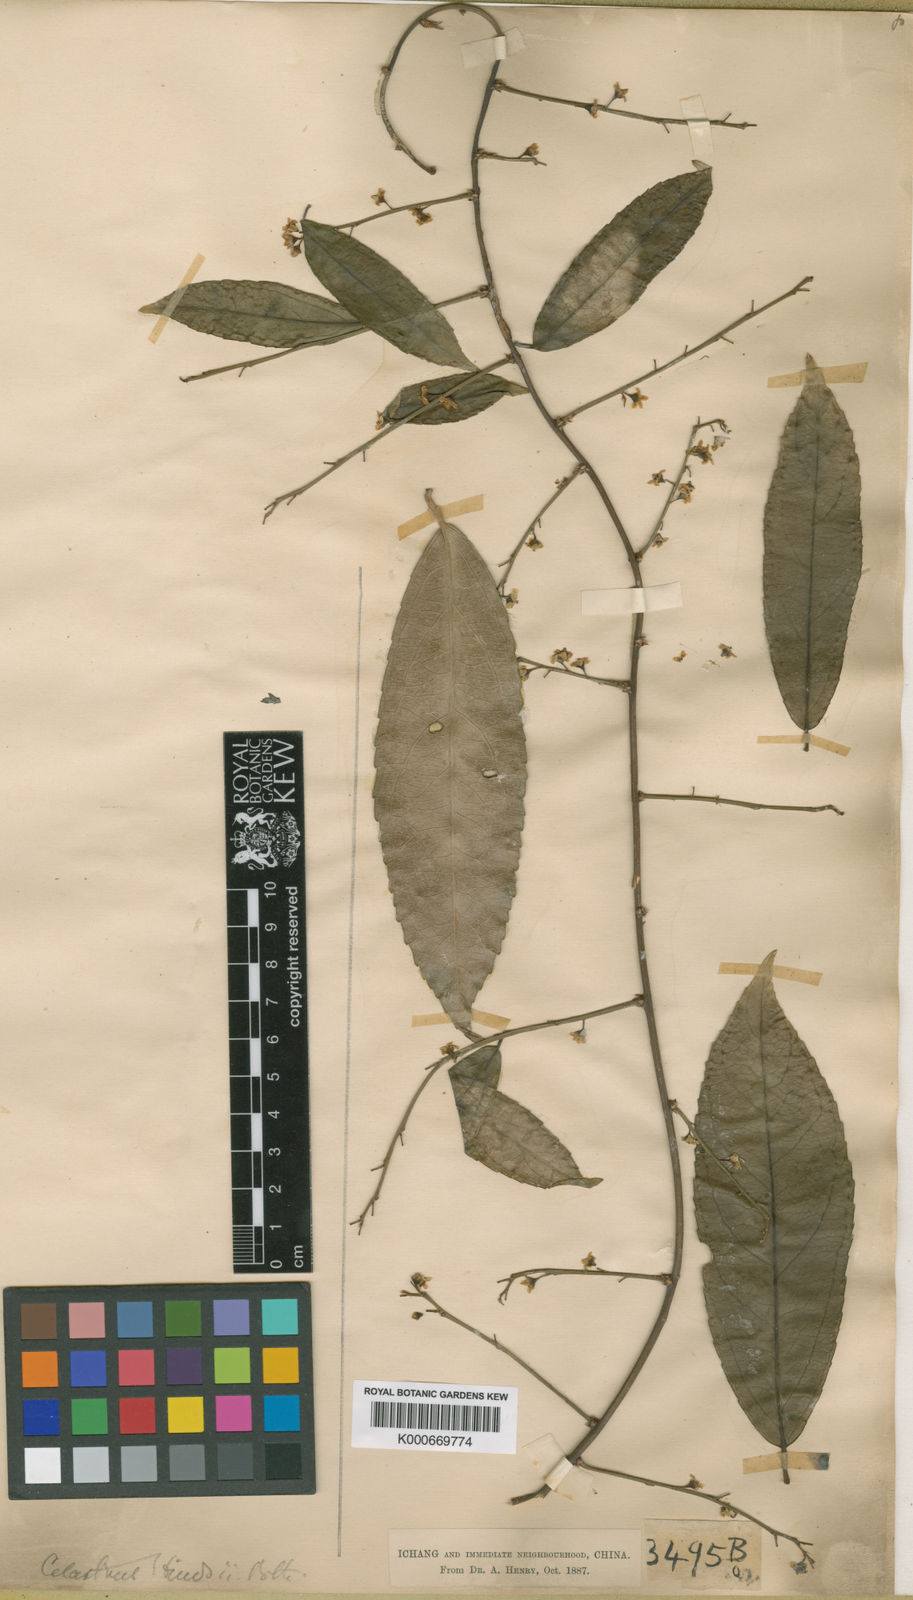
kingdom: Plantae
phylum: Tracheophyta
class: Magnoliopsida
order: Celastrales
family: Celastraceae
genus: Celastrus
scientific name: Celastrus hindsii
